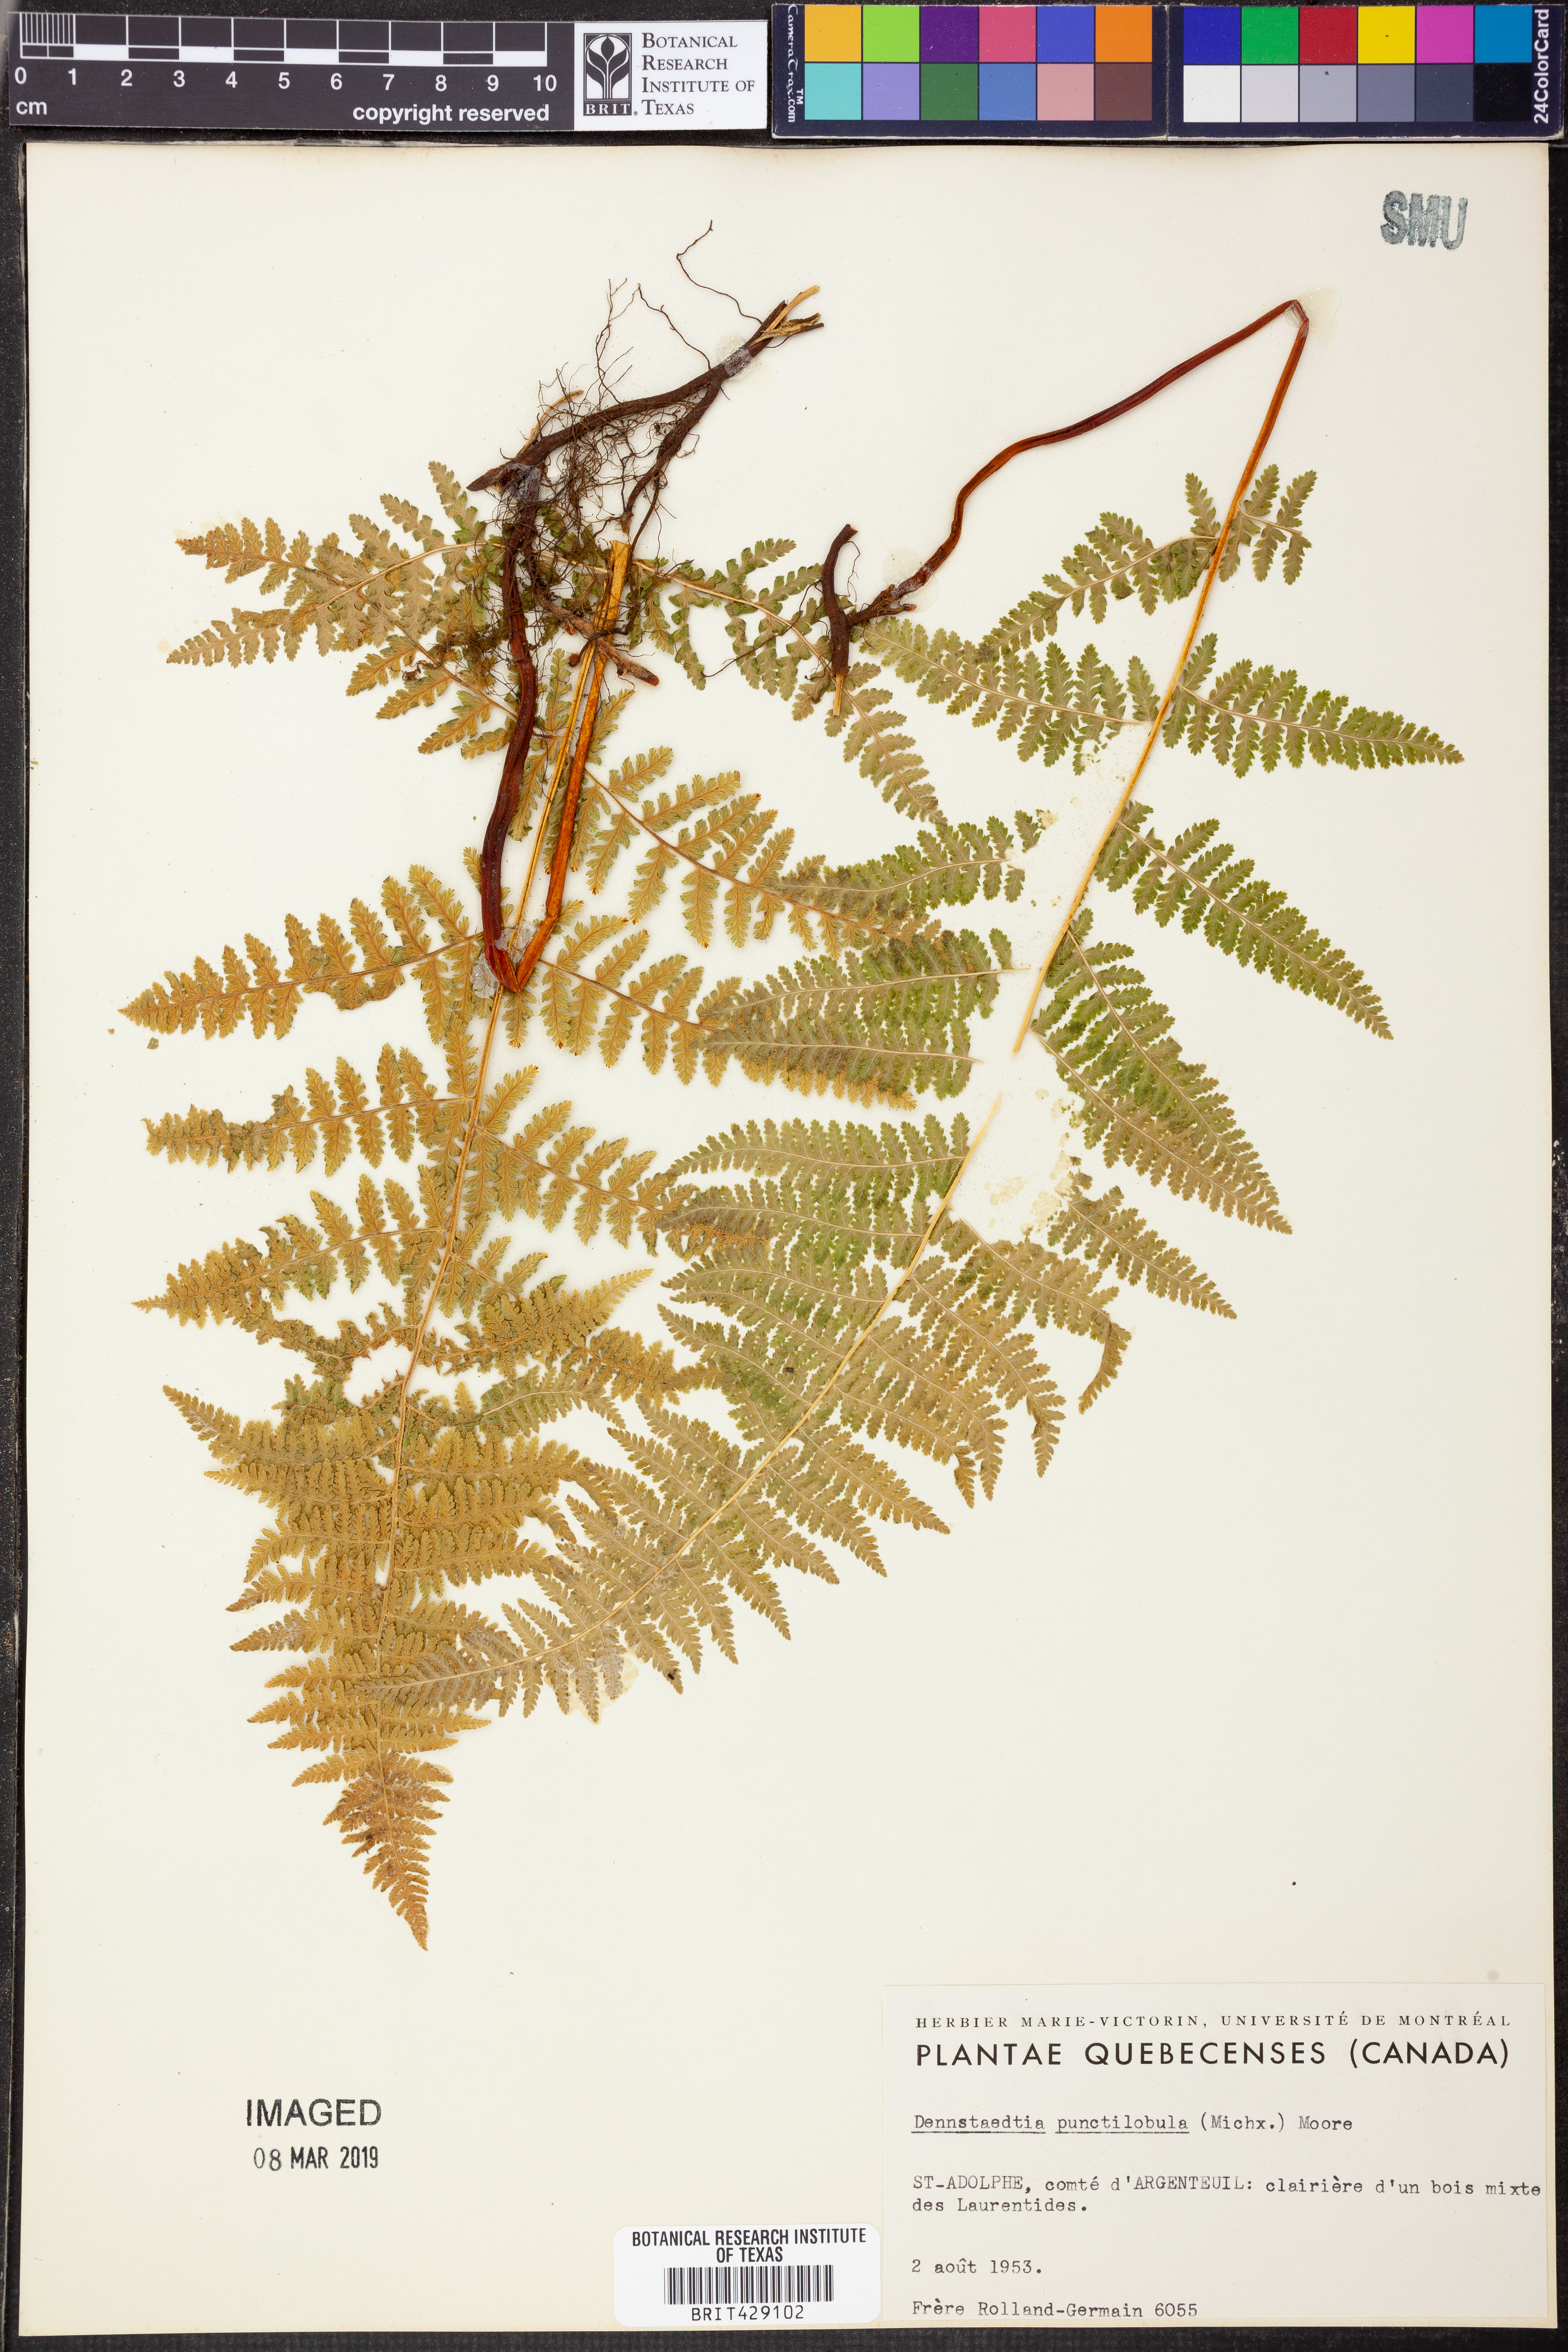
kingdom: Plantae
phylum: Tracheophyta
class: Polypodiopsida
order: Polypodiales
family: Dennstaedtiaceae
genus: Sitobolium
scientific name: Sitobolium punctilobum
